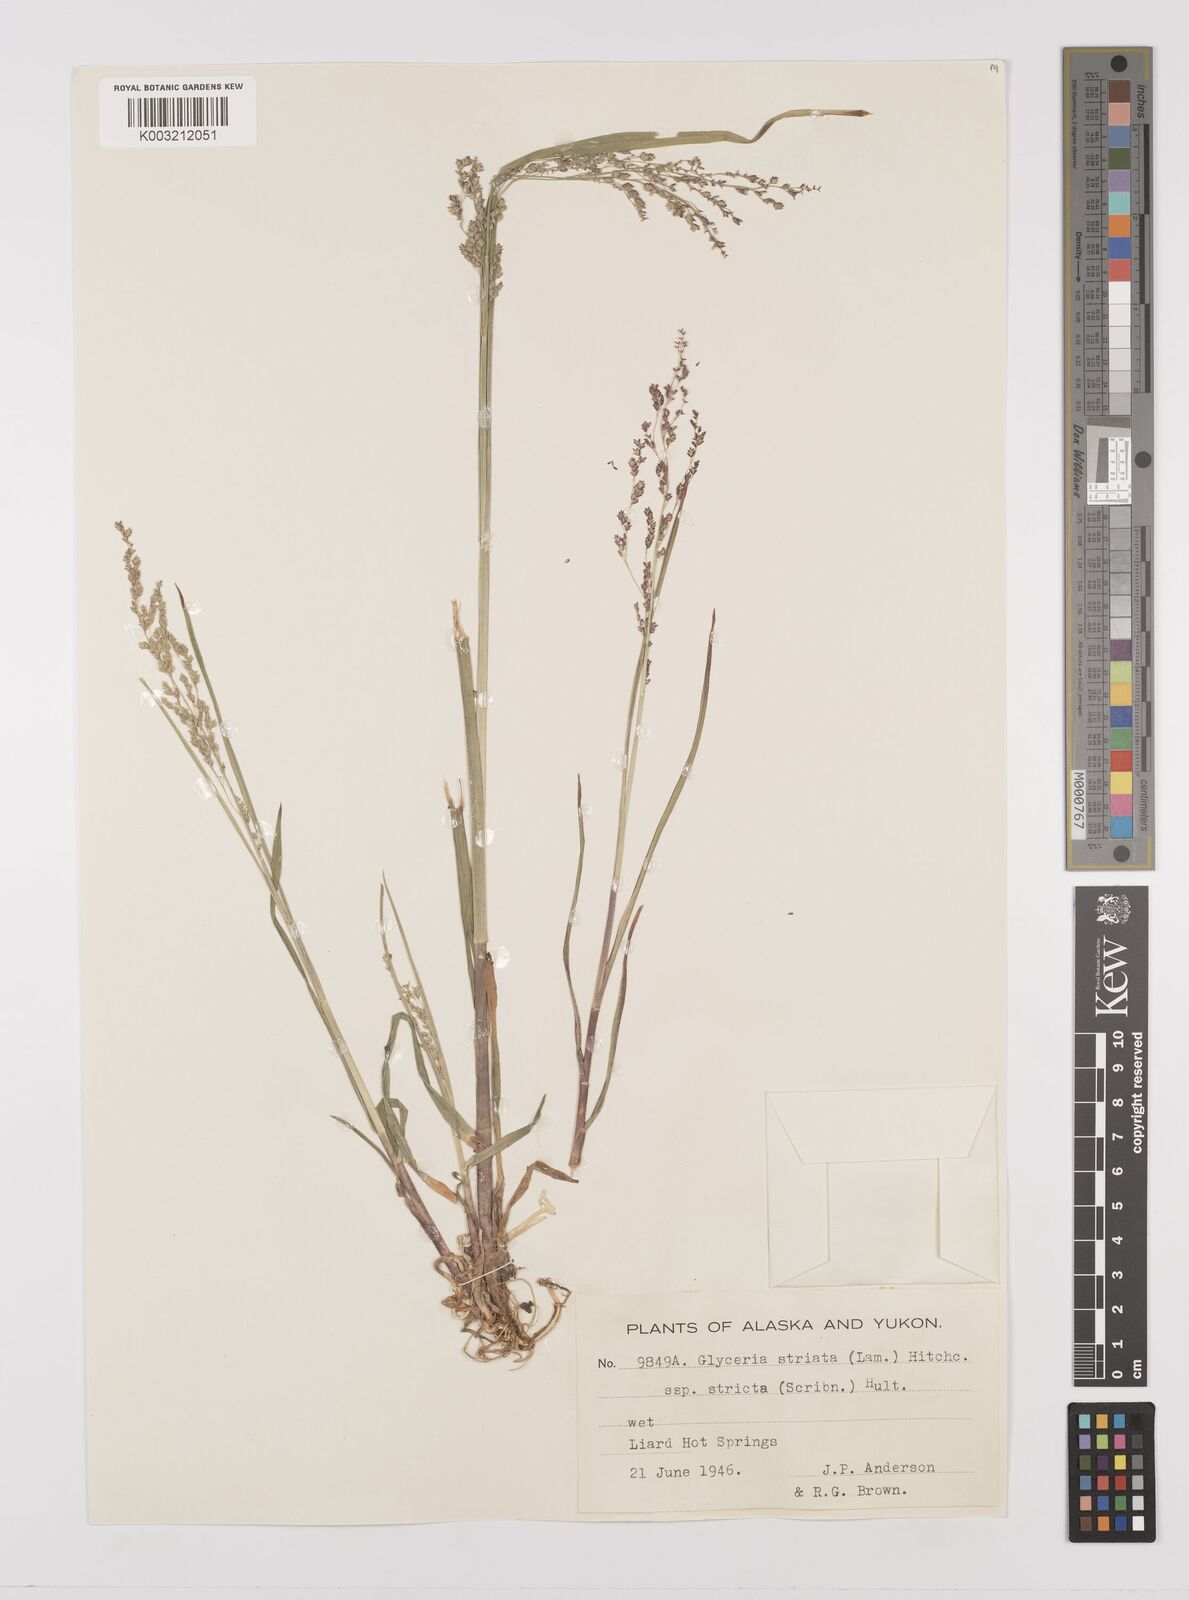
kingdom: Plantae
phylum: Tracheophyta
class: Liliopsida
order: Poales
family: Poaceae
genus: Glyceria
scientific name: Glyceria striata
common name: Fowl manna grass
